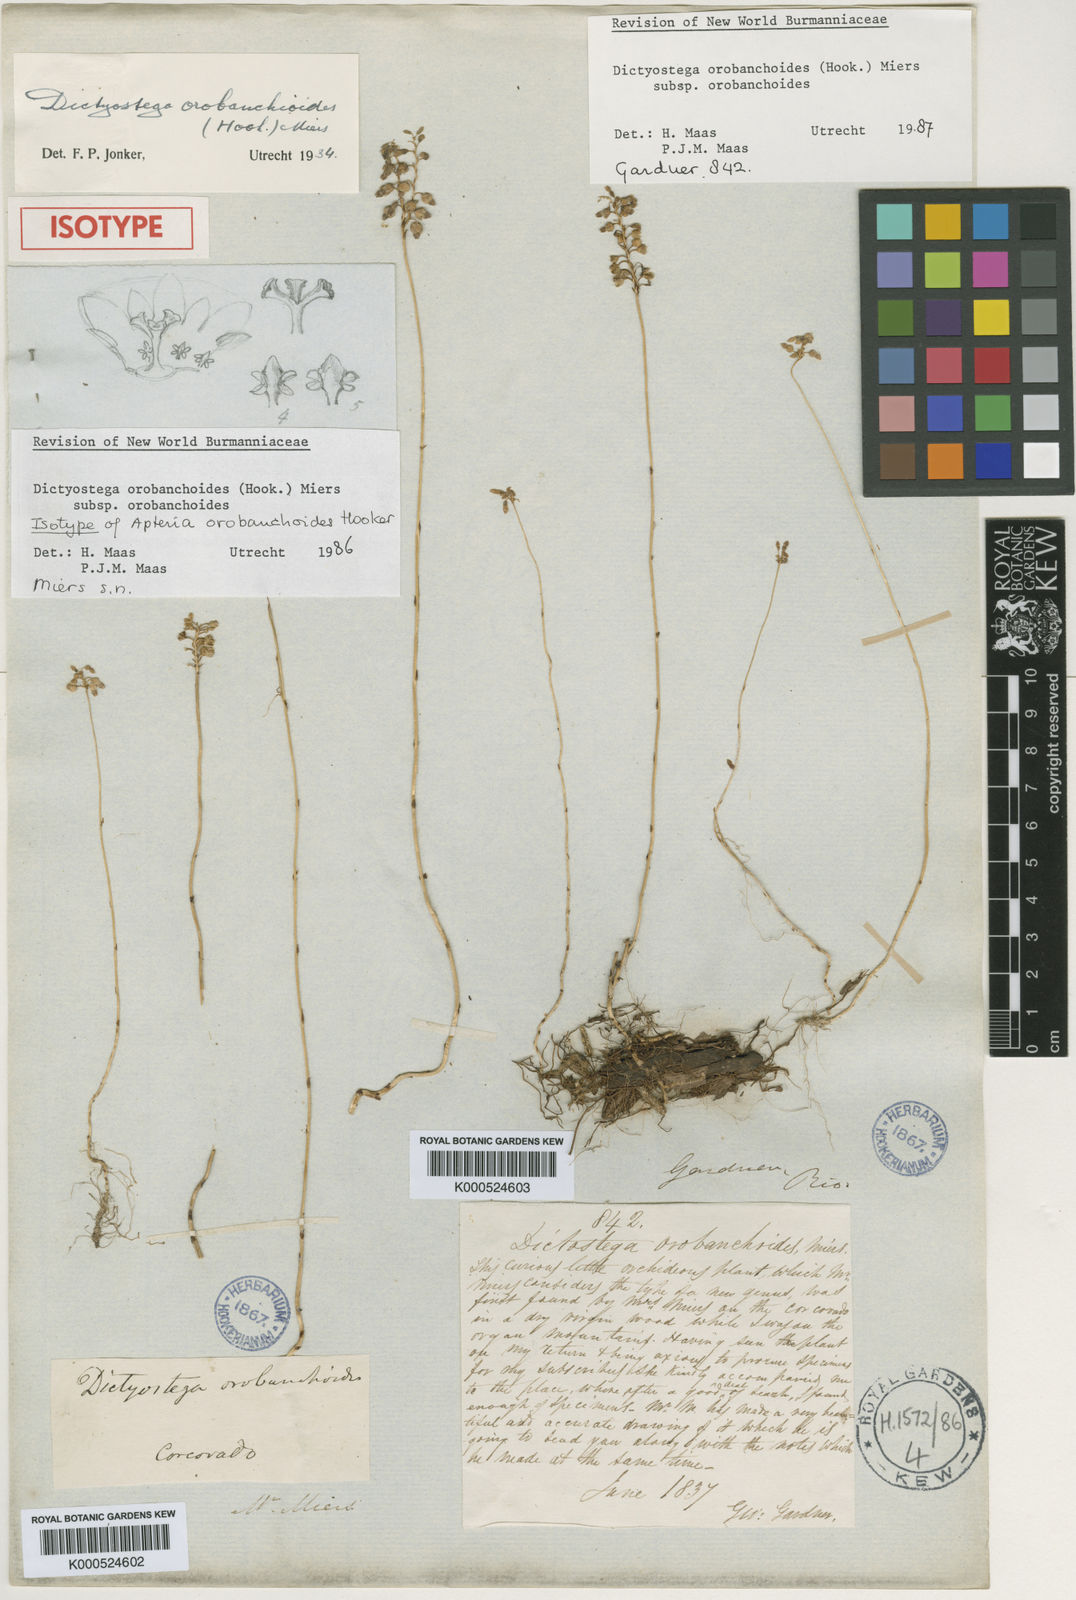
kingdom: Plantae
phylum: Tracheophyta
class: Liliopsida
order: Dioscoreales
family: Burmanniaceae
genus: Dictyostega
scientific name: Dictyostega orobanchoides
